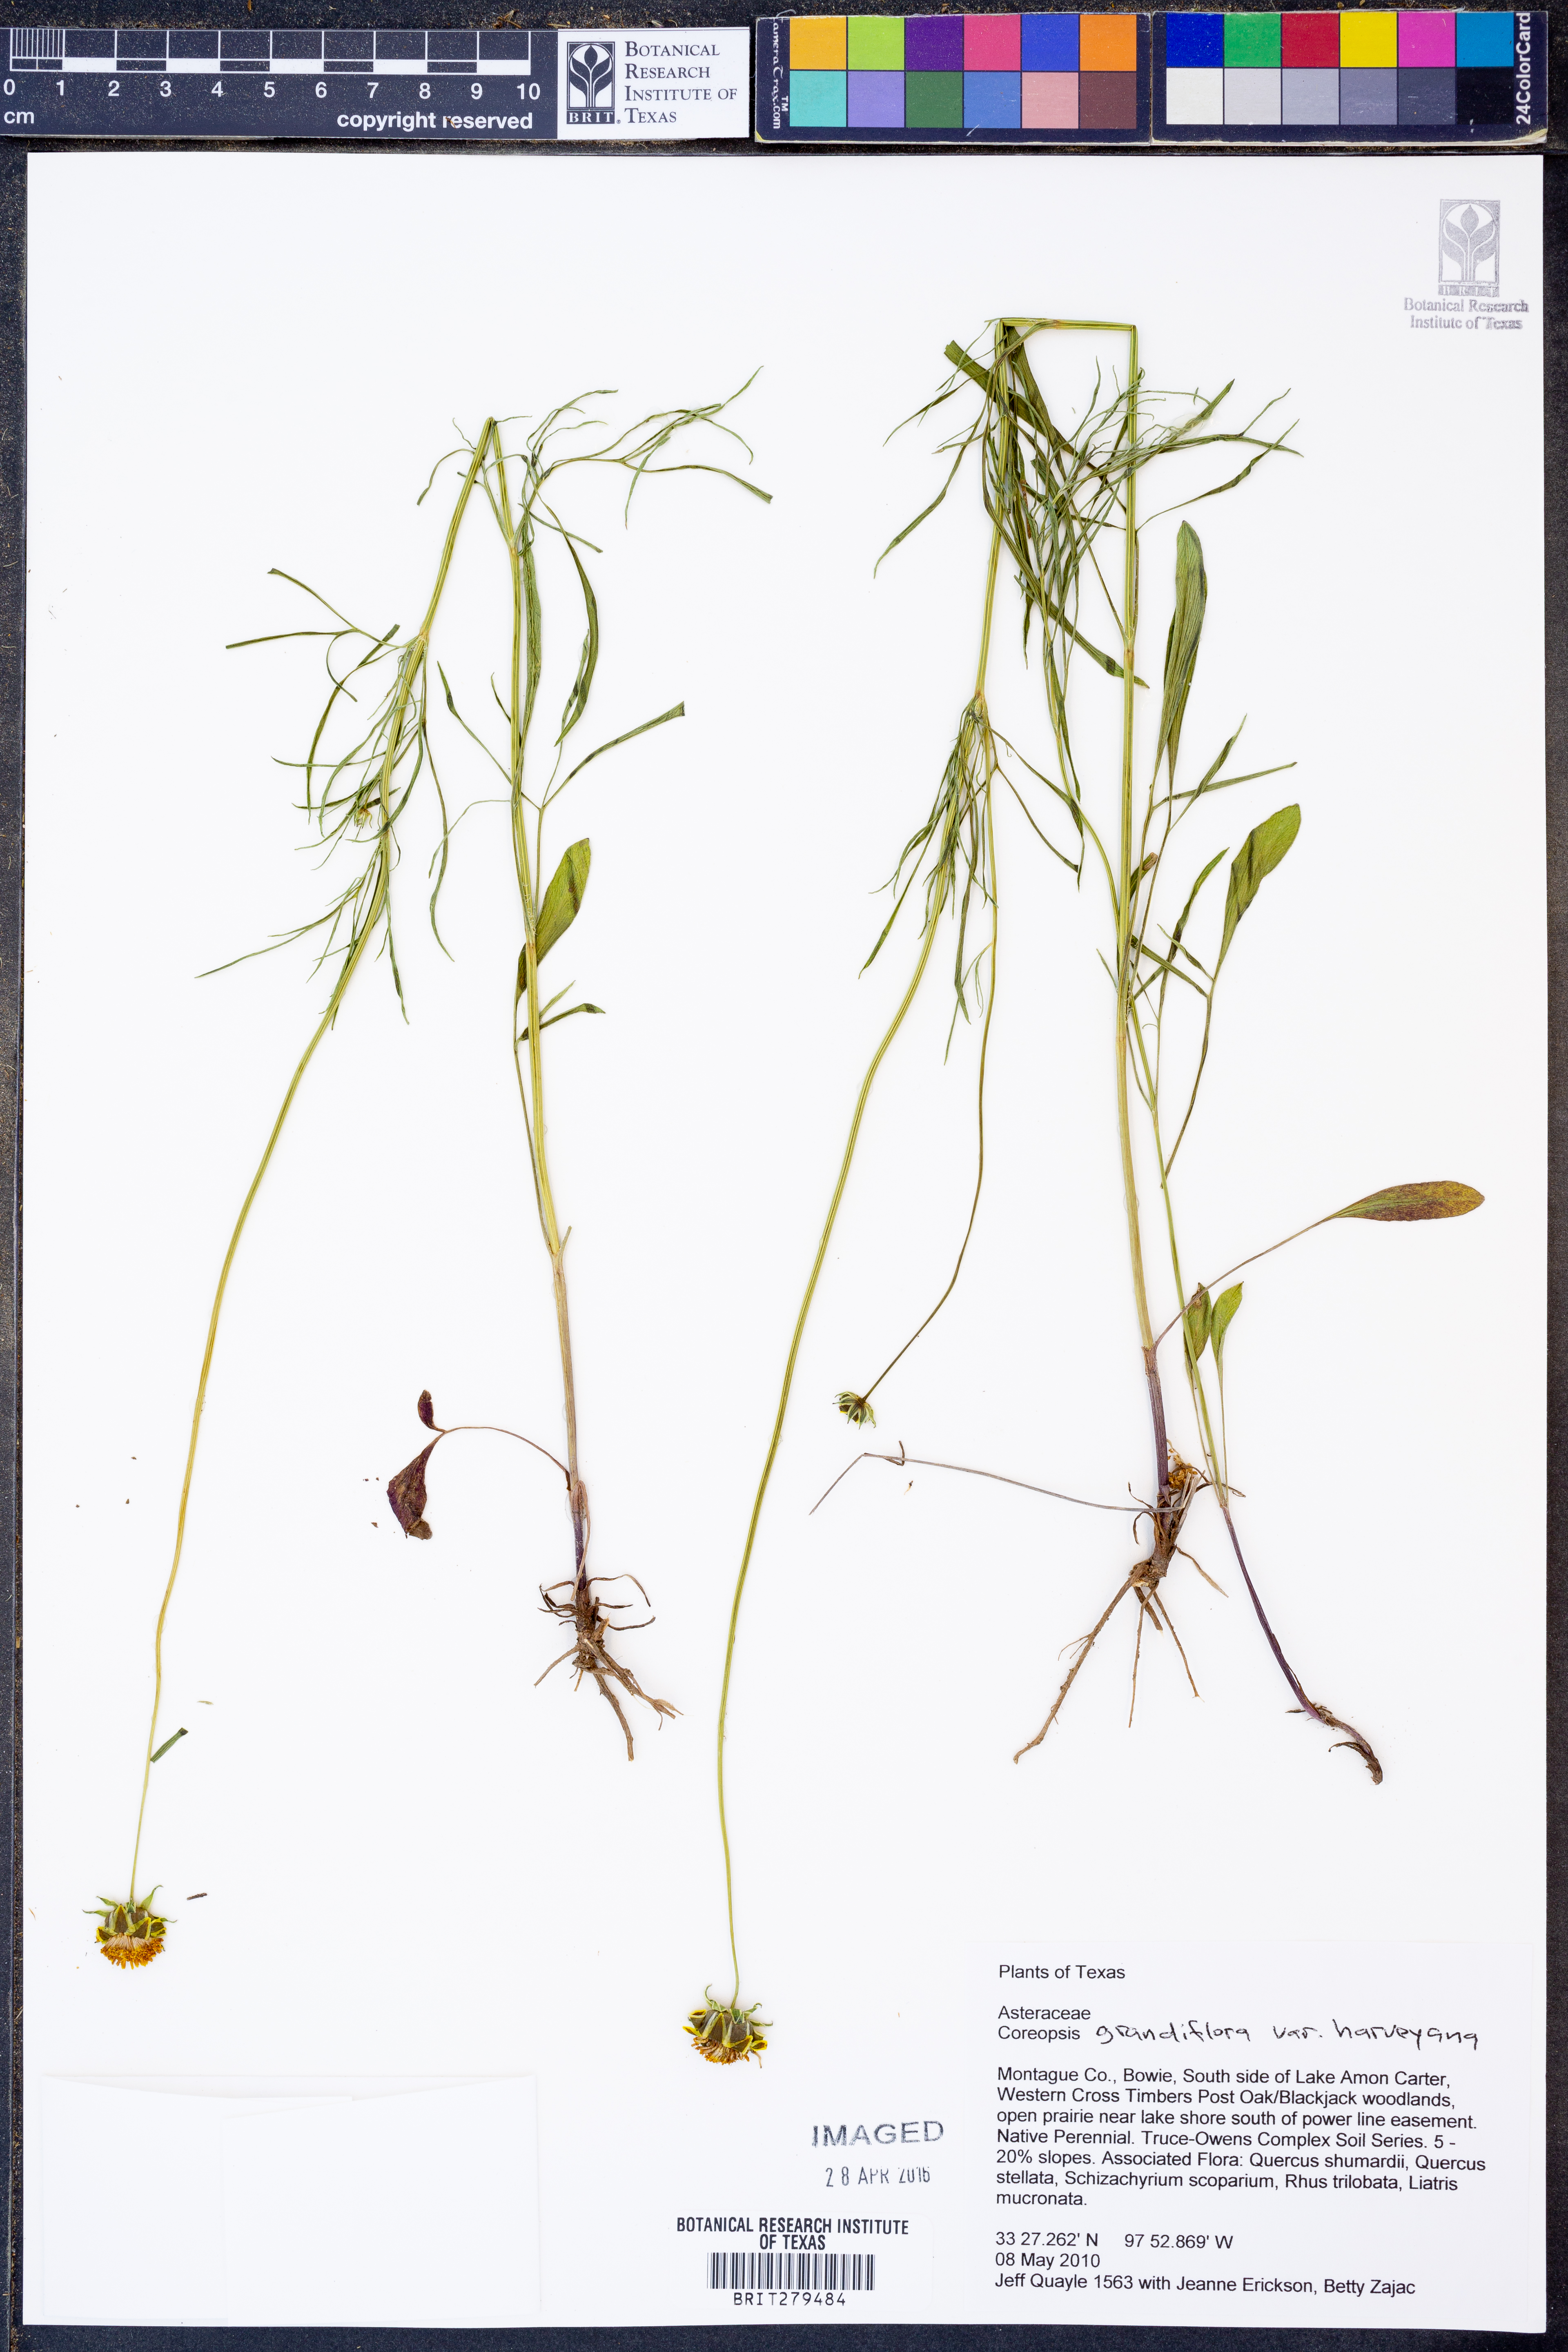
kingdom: Plantae
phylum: Tracheophyta
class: Magnoliopsida
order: Asterales
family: Asteraceae
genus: Coreopsis
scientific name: Coreopsis grandiflora
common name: Large-flowered tickseed
